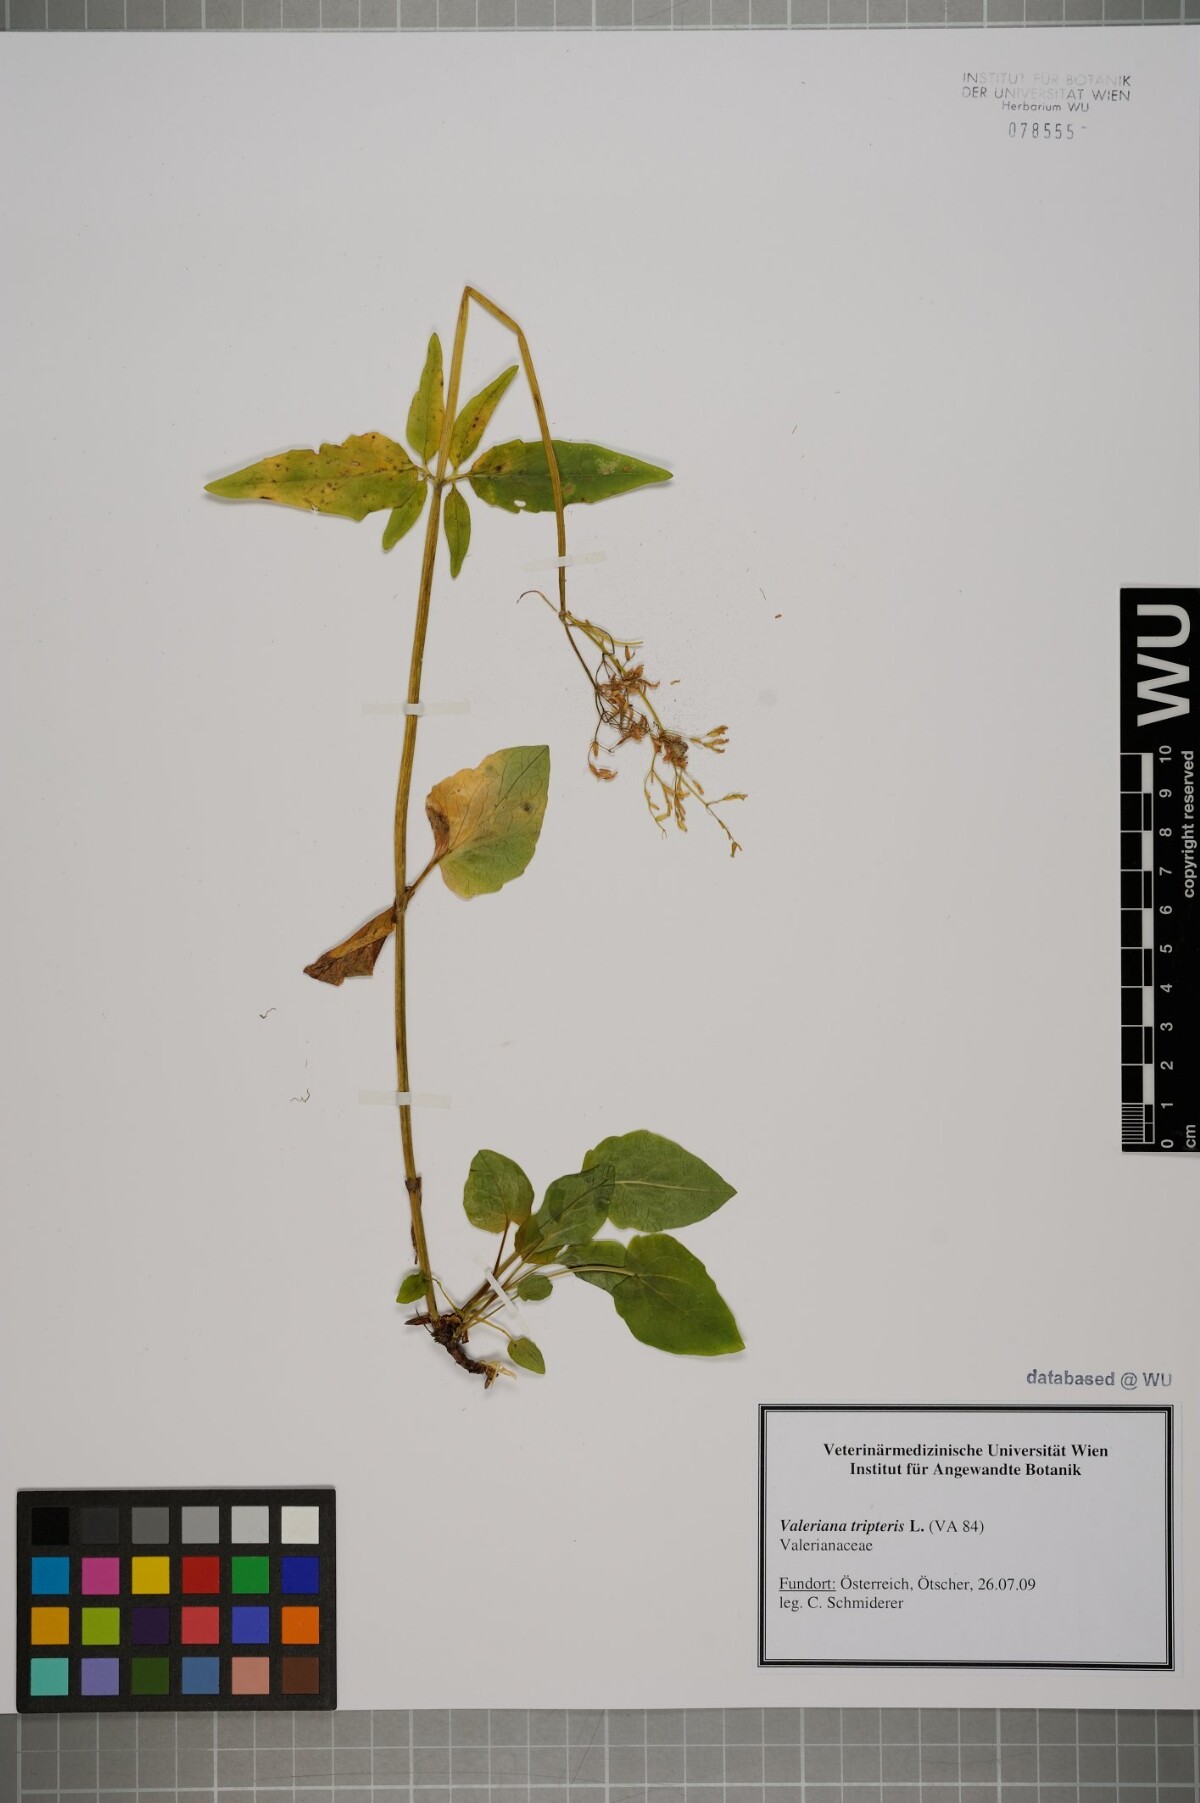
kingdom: Plantae
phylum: Tracheophyta
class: Magnoliopsida
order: Dipsacales
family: Caprifoliaceae
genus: Valeriana
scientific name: Valeriana tripteris
